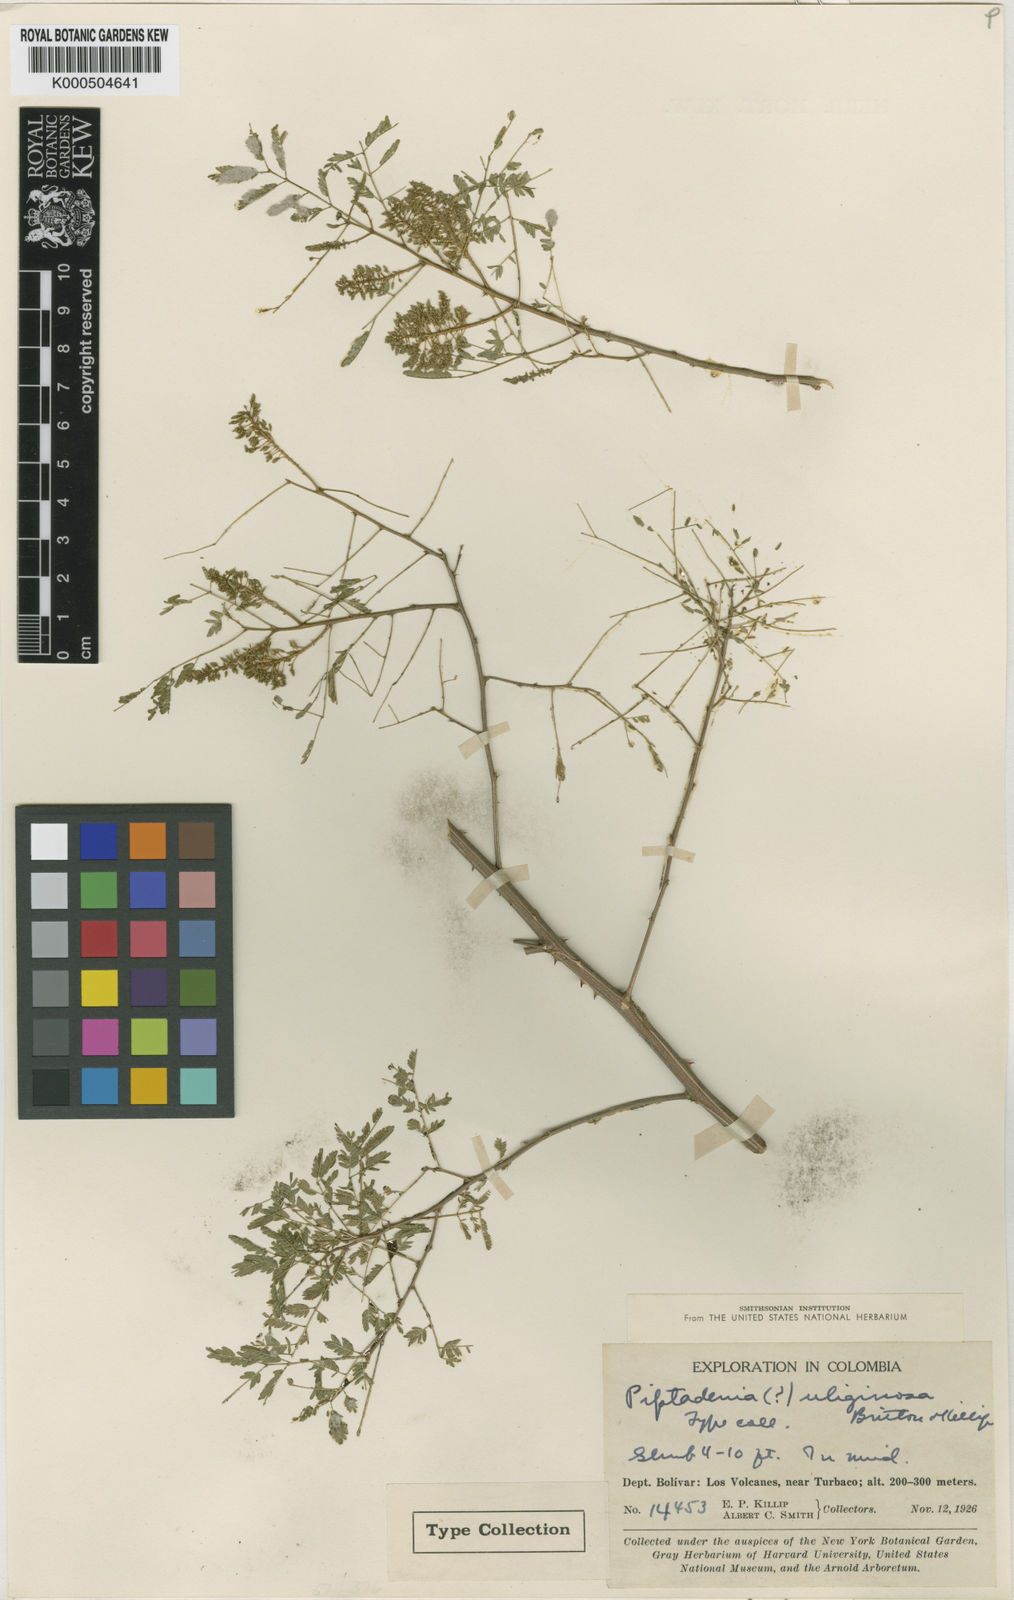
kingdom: Plantae
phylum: Tracheophyta
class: Magnoliopsida
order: Fabales
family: Fabaceae
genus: Piptadenia
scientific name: Piptadenia uliginosa
